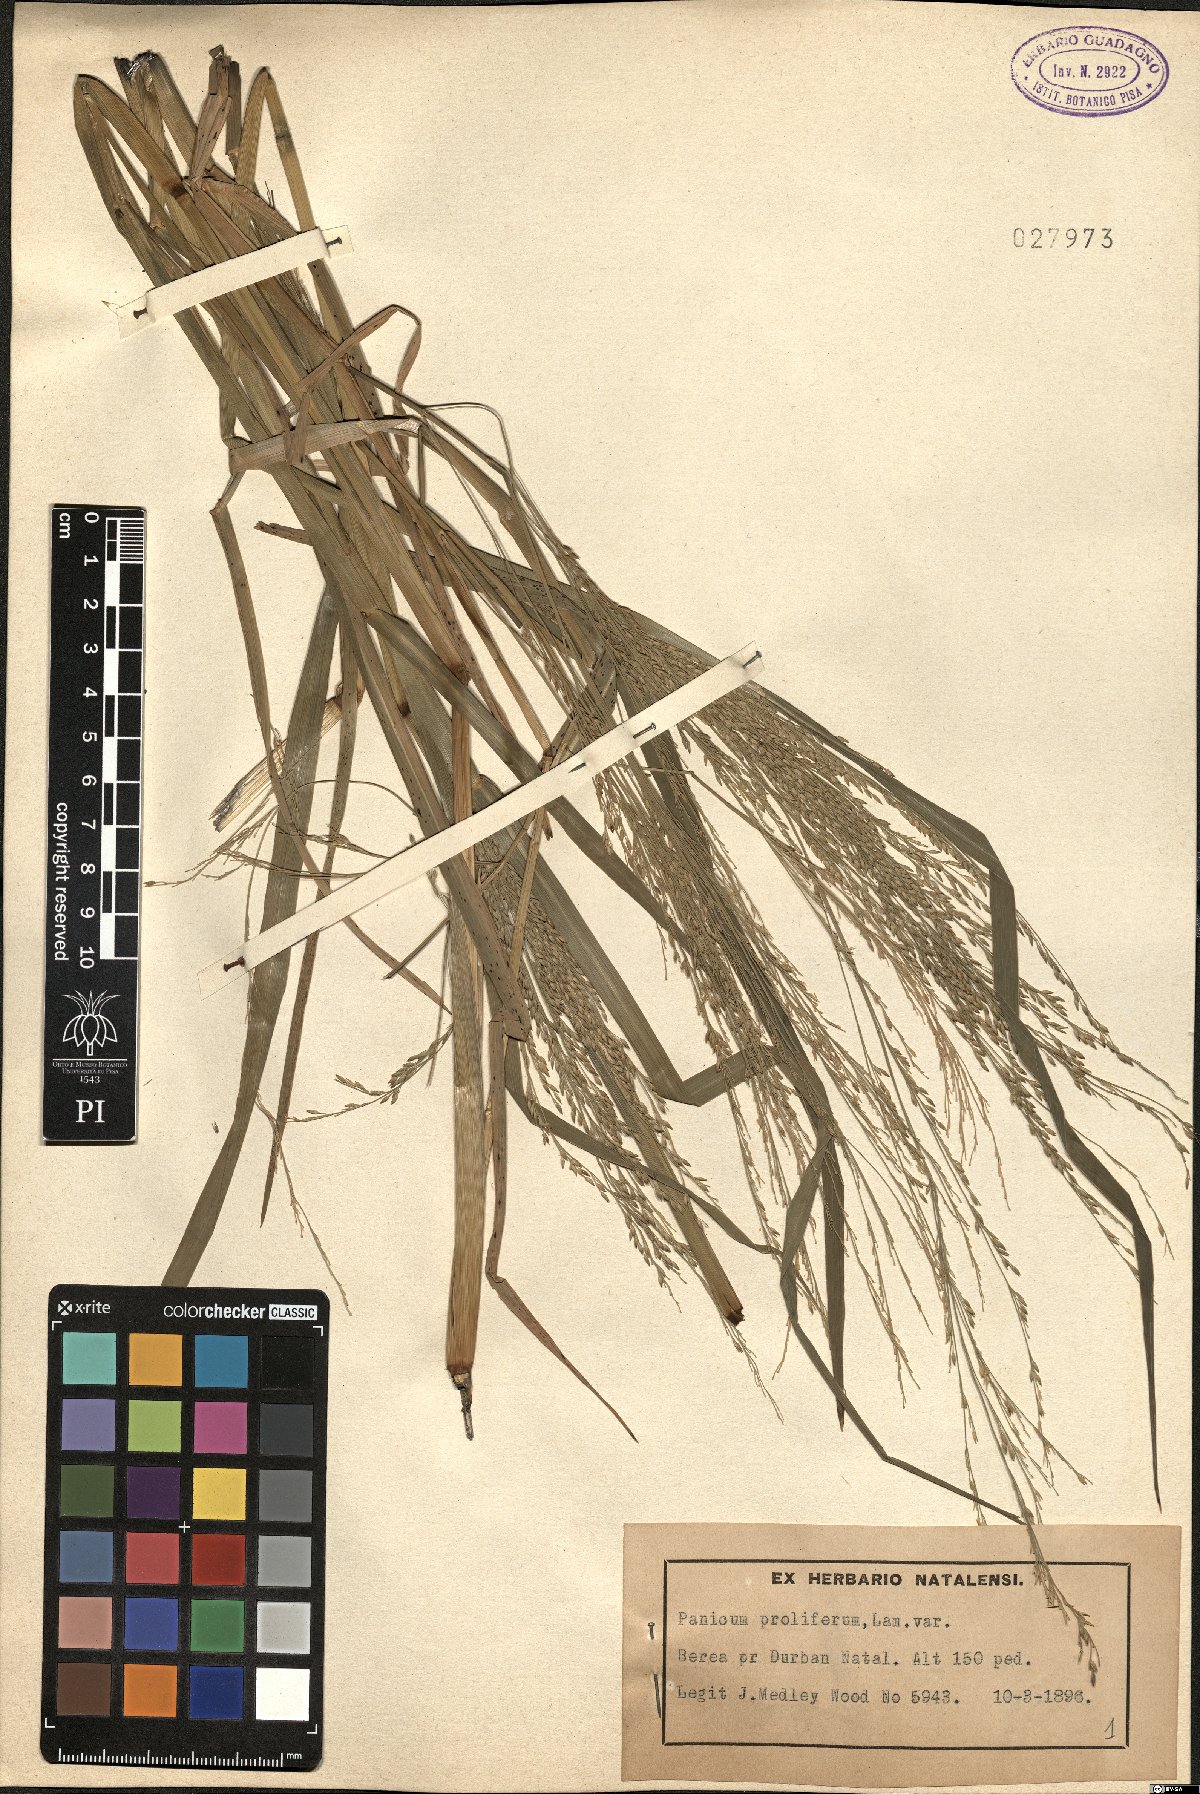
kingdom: Plantae
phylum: Tracheophyta
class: Liliopsida
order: Poales
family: Poaceae
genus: Panicum
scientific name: Panicum antidotale
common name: Blue panicum
